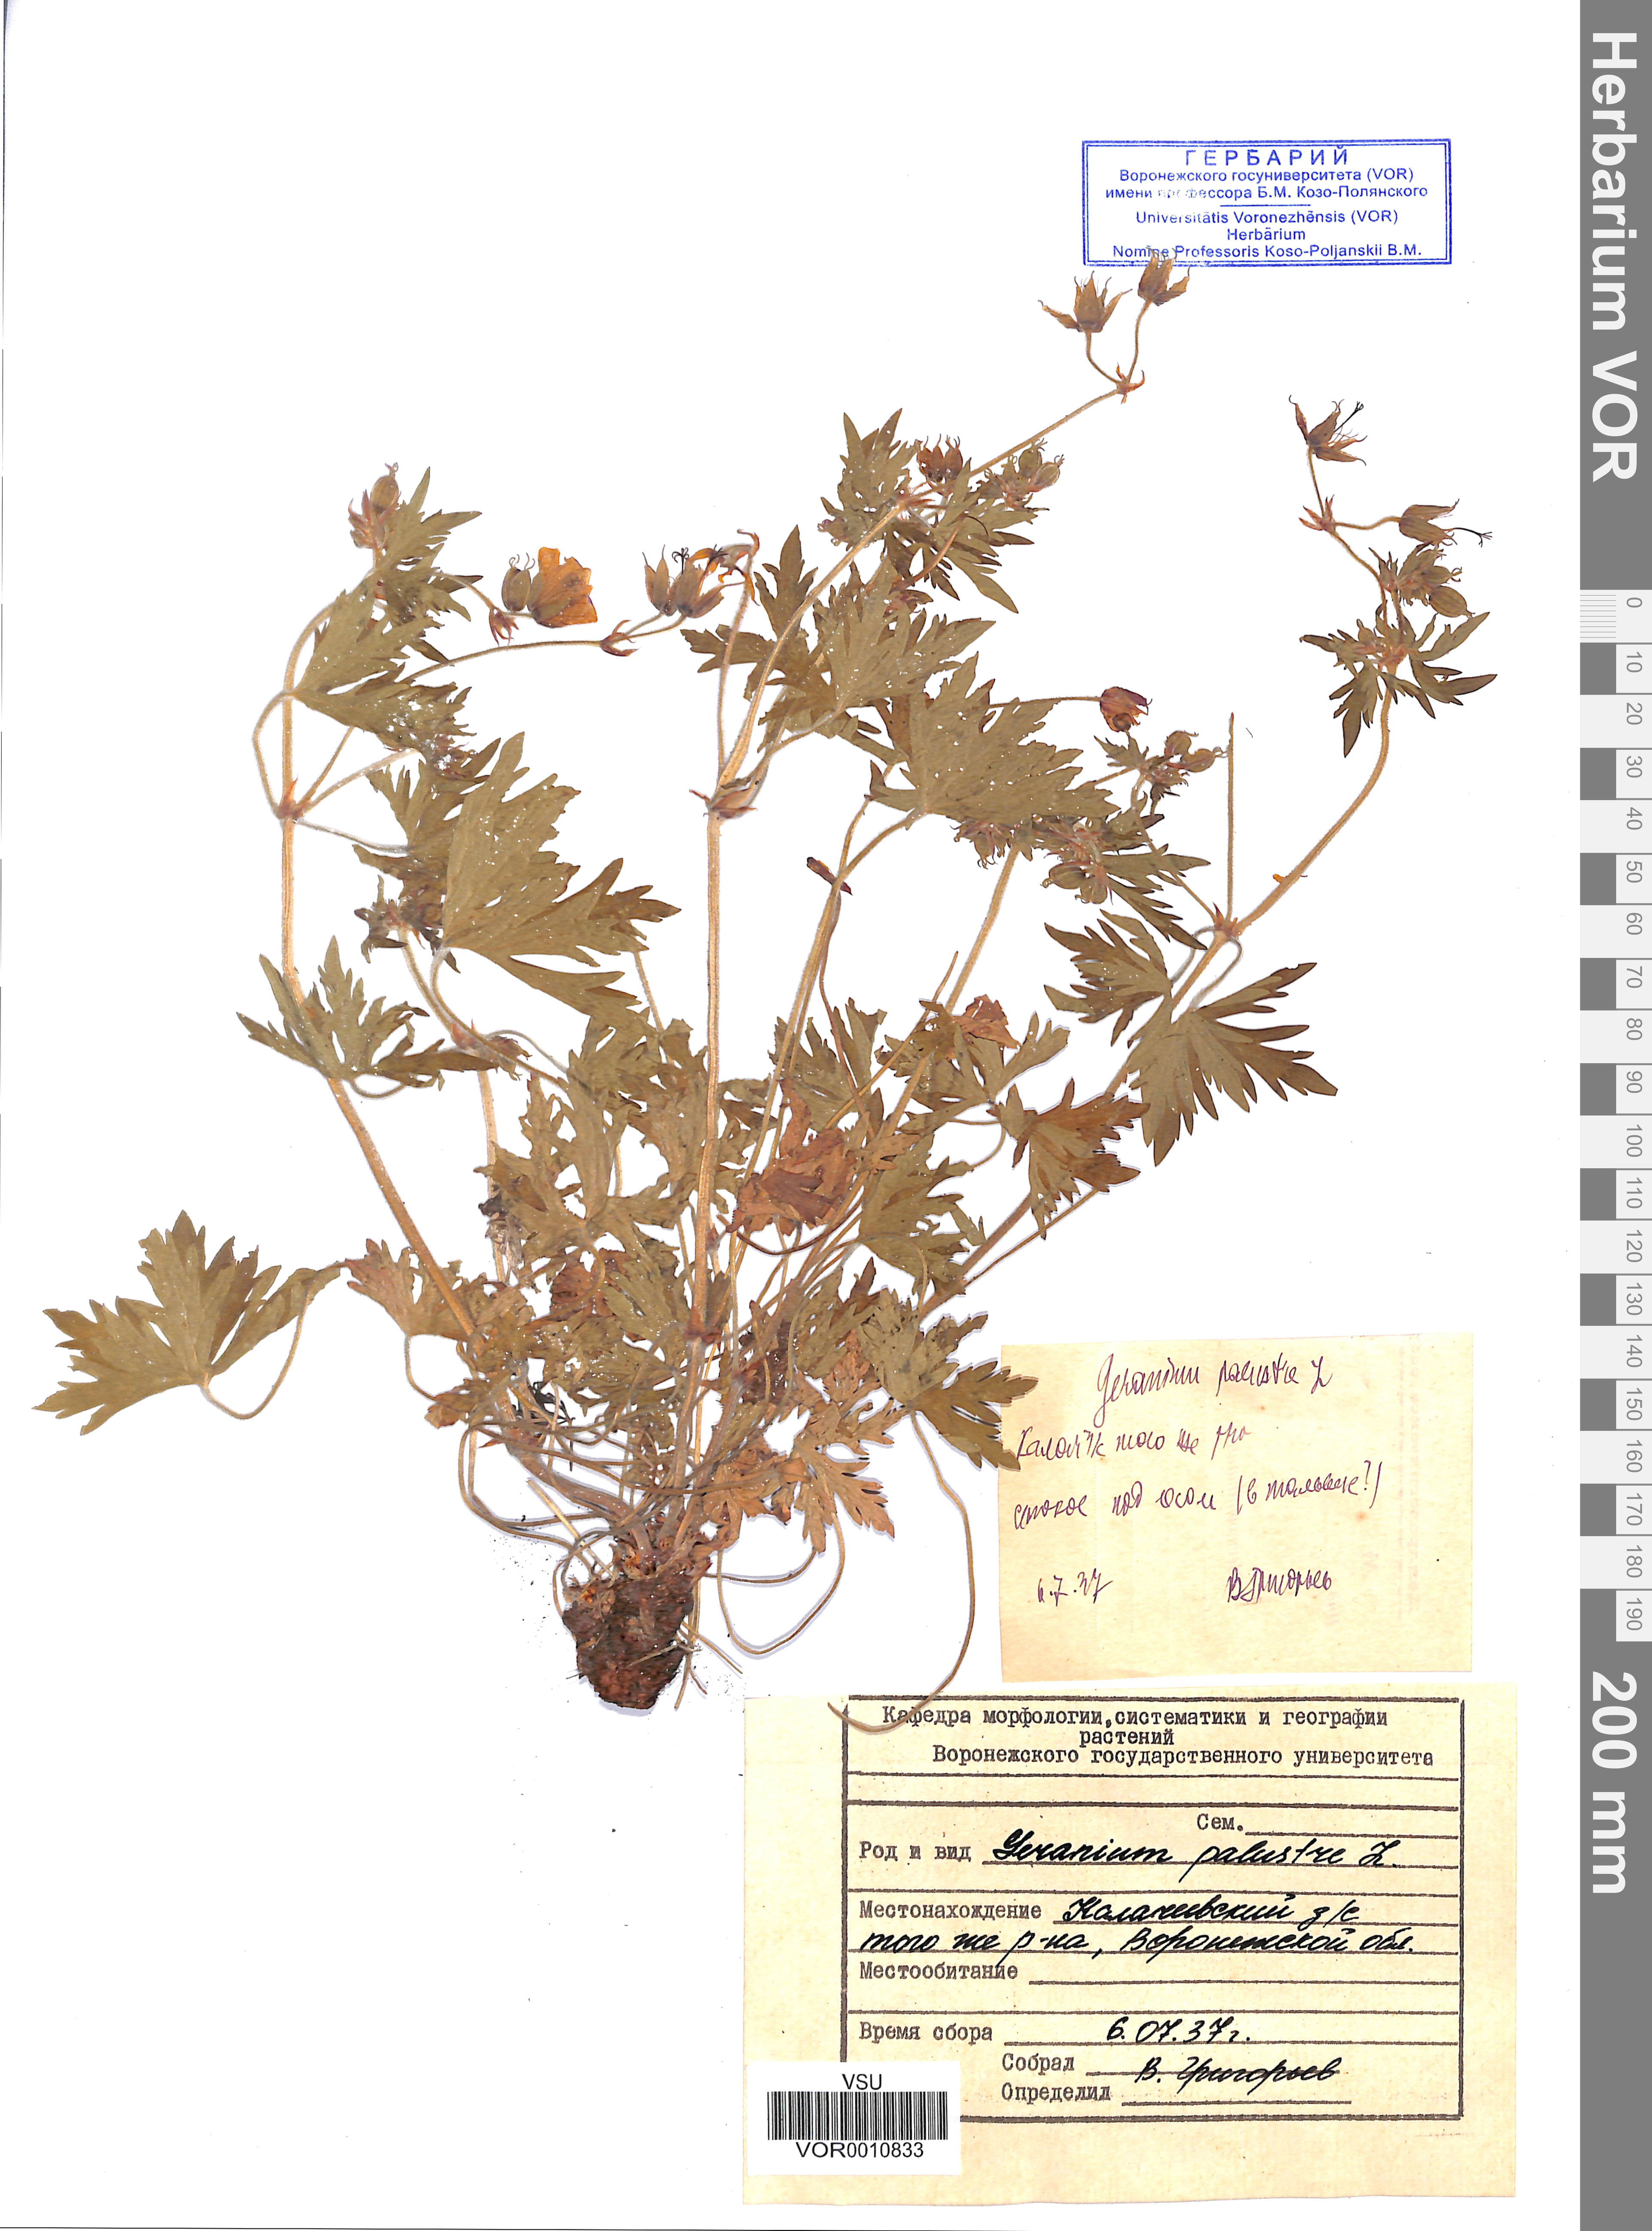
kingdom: Plantae
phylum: Tracheophyta
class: Magnoliopsida
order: Geraniales
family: Geraniaceae
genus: Geranium
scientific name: Geranium palustre
